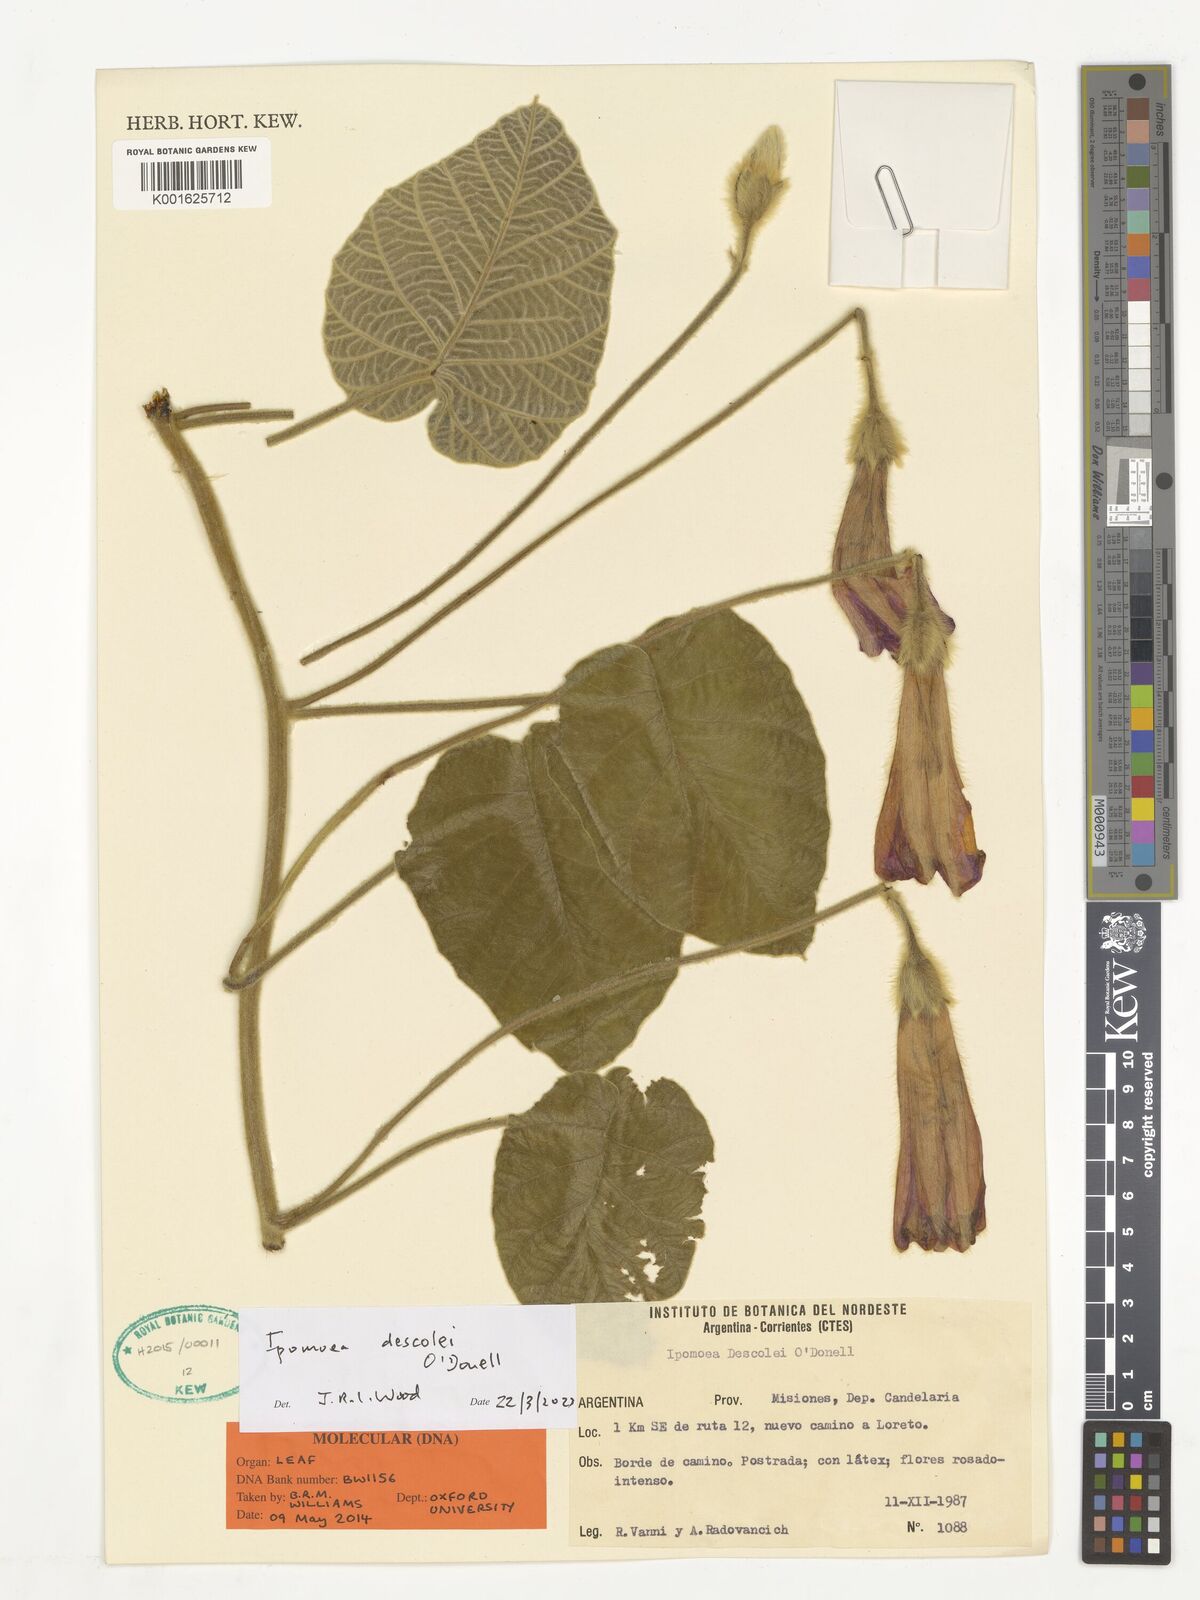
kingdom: Plantae
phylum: Tracheophyta
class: Magnoliopsida
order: Solanales
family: Convolvulaceae
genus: Ipomoea
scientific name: Ipomoea descolei
